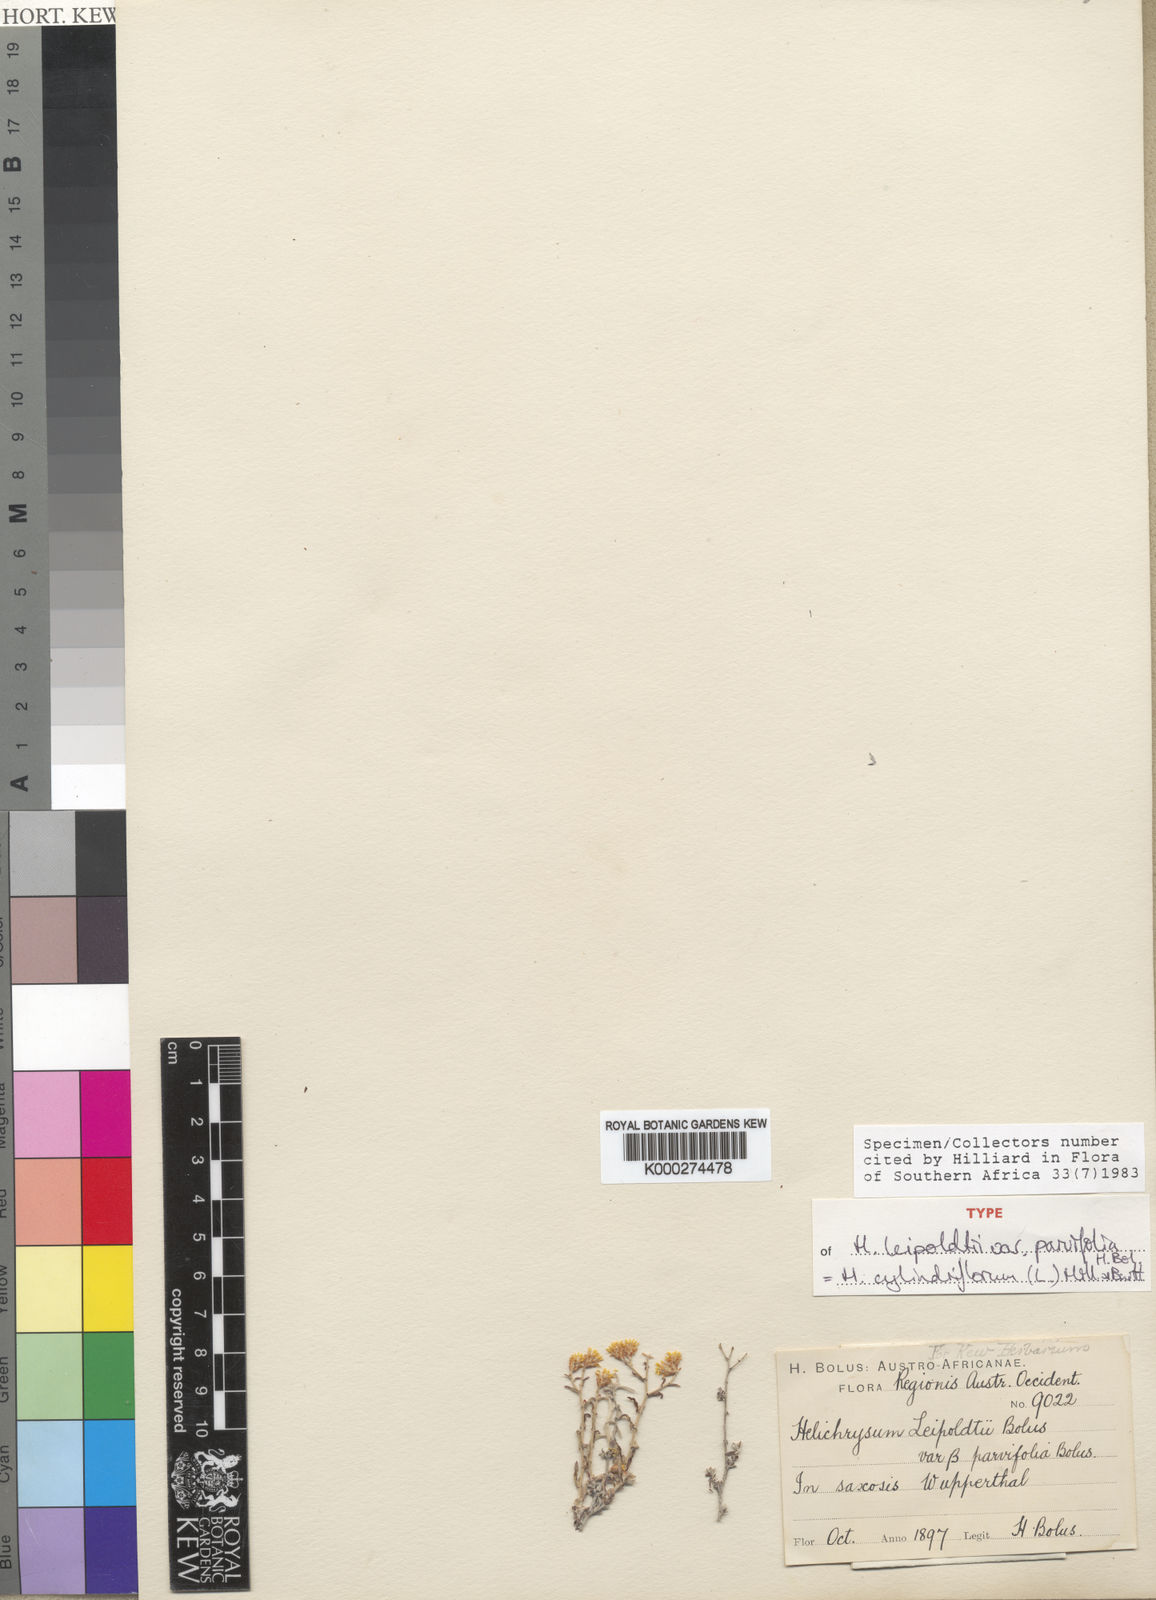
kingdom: Plantae
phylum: Tracheophyta
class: Magnoliopsida
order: Asterales
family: Asteraceae
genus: Helichrysum
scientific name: Helichrysum cylindriflorum
